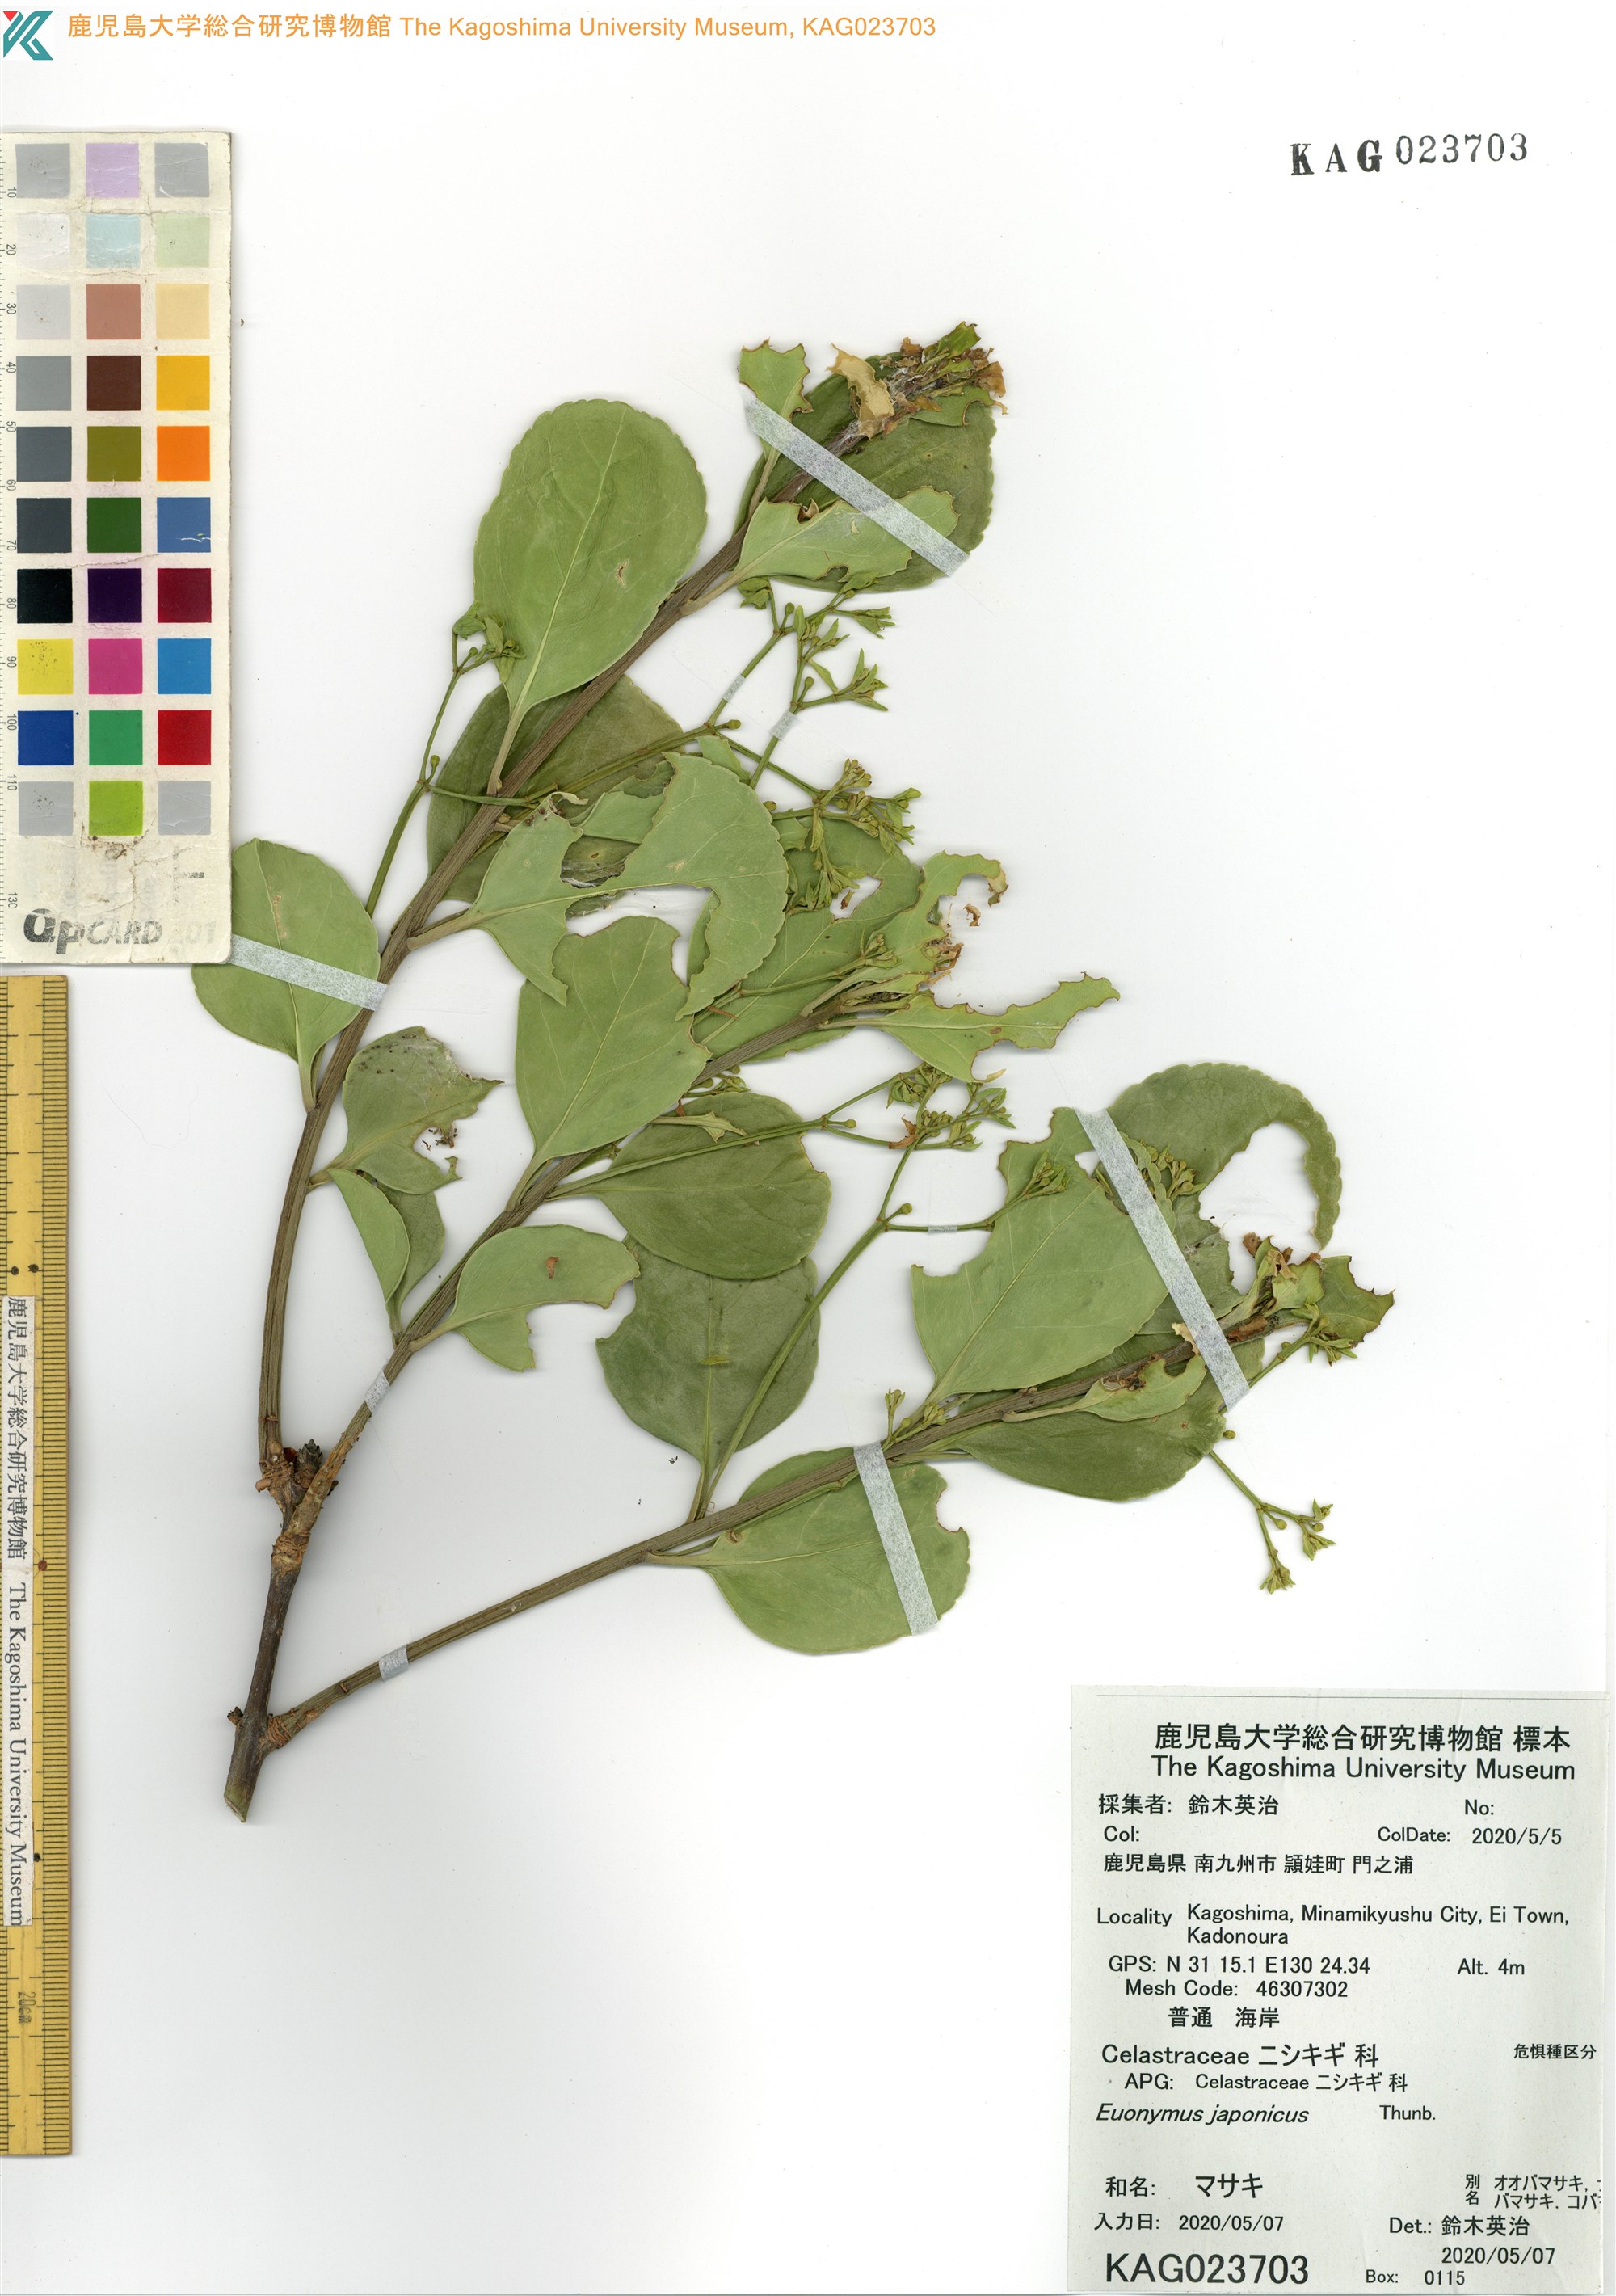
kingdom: Plantae
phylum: Tracheophyta
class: Magnoliopsida
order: Celastrales
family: Celastraceae
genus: Euonymus
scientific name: Euonymus japonicus
